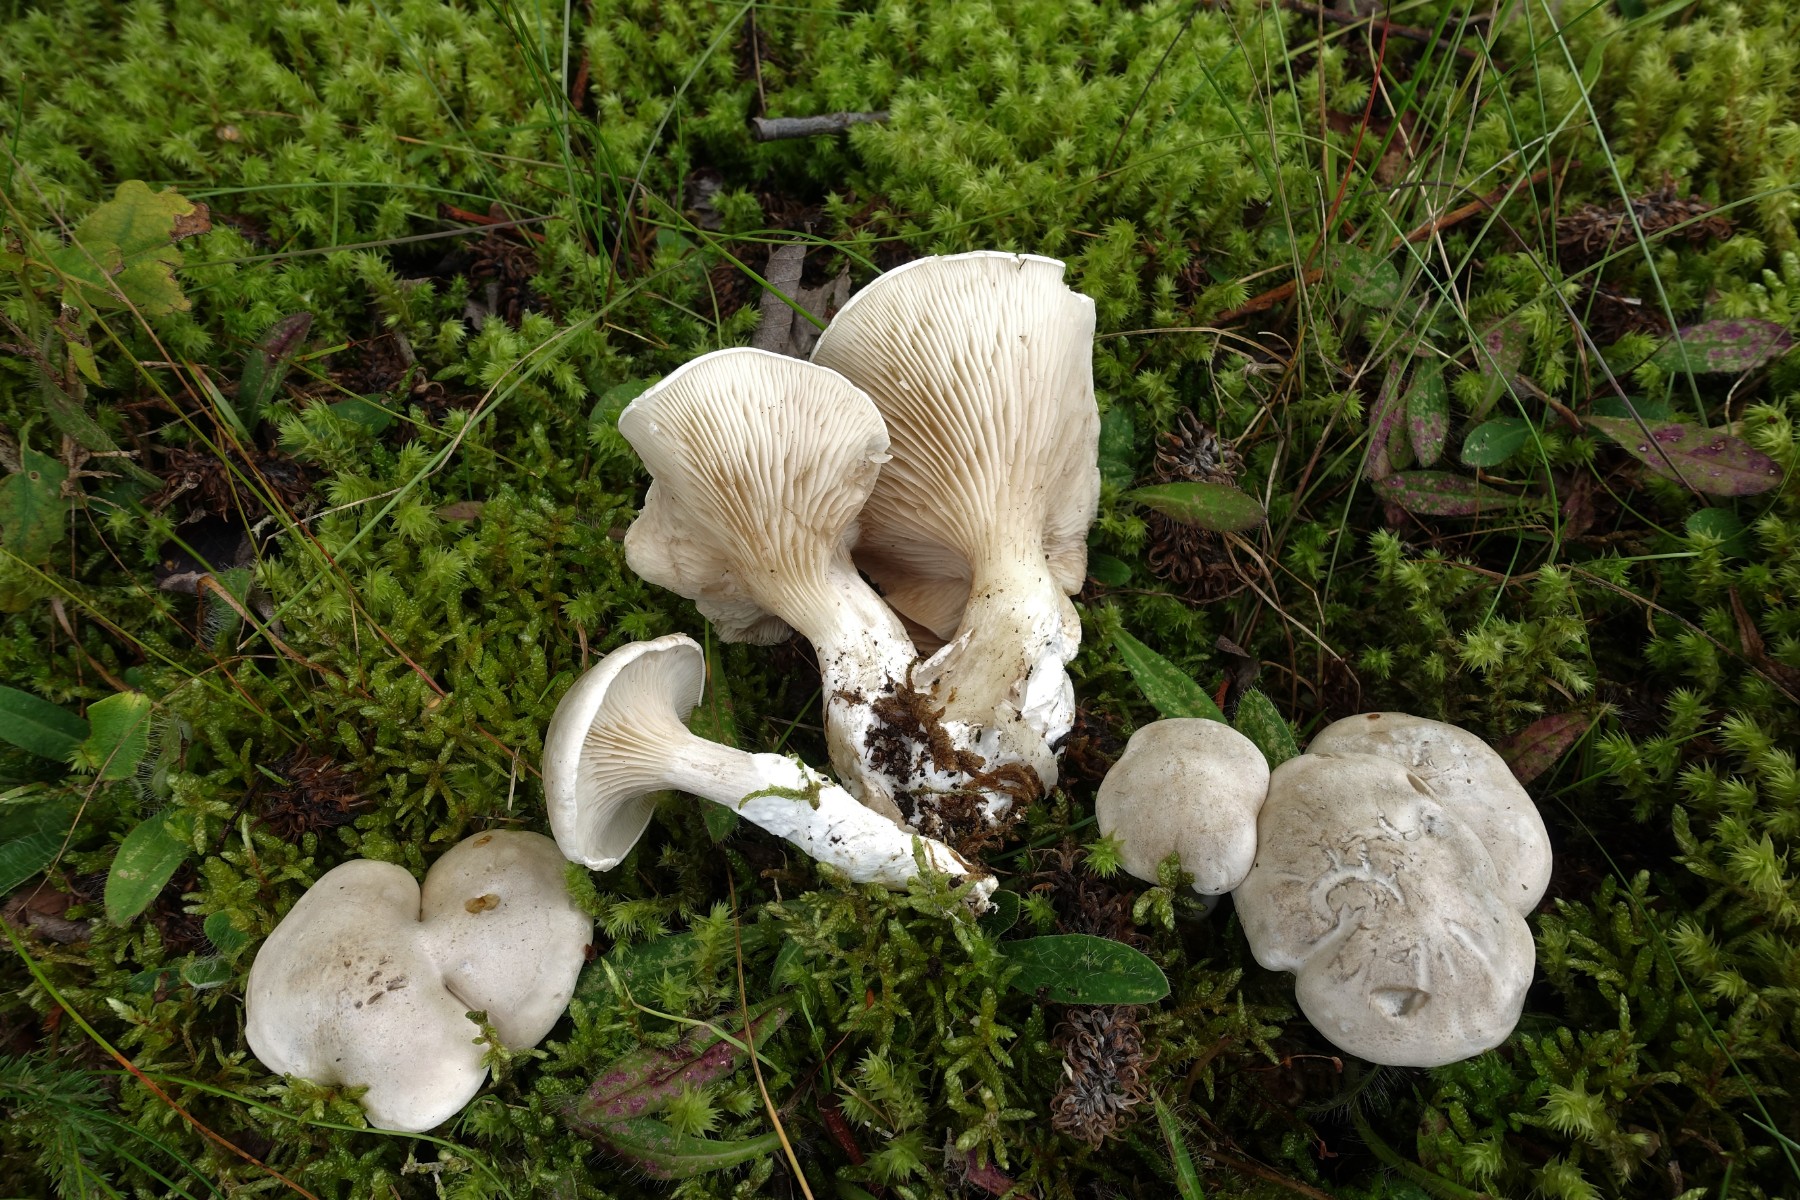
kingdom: Fungi
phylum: Basidiomycota
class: Agaricomycetes
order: Agaricales
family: Entolomataceae
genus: Clitopilus
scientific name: Clitopilus prunulus
